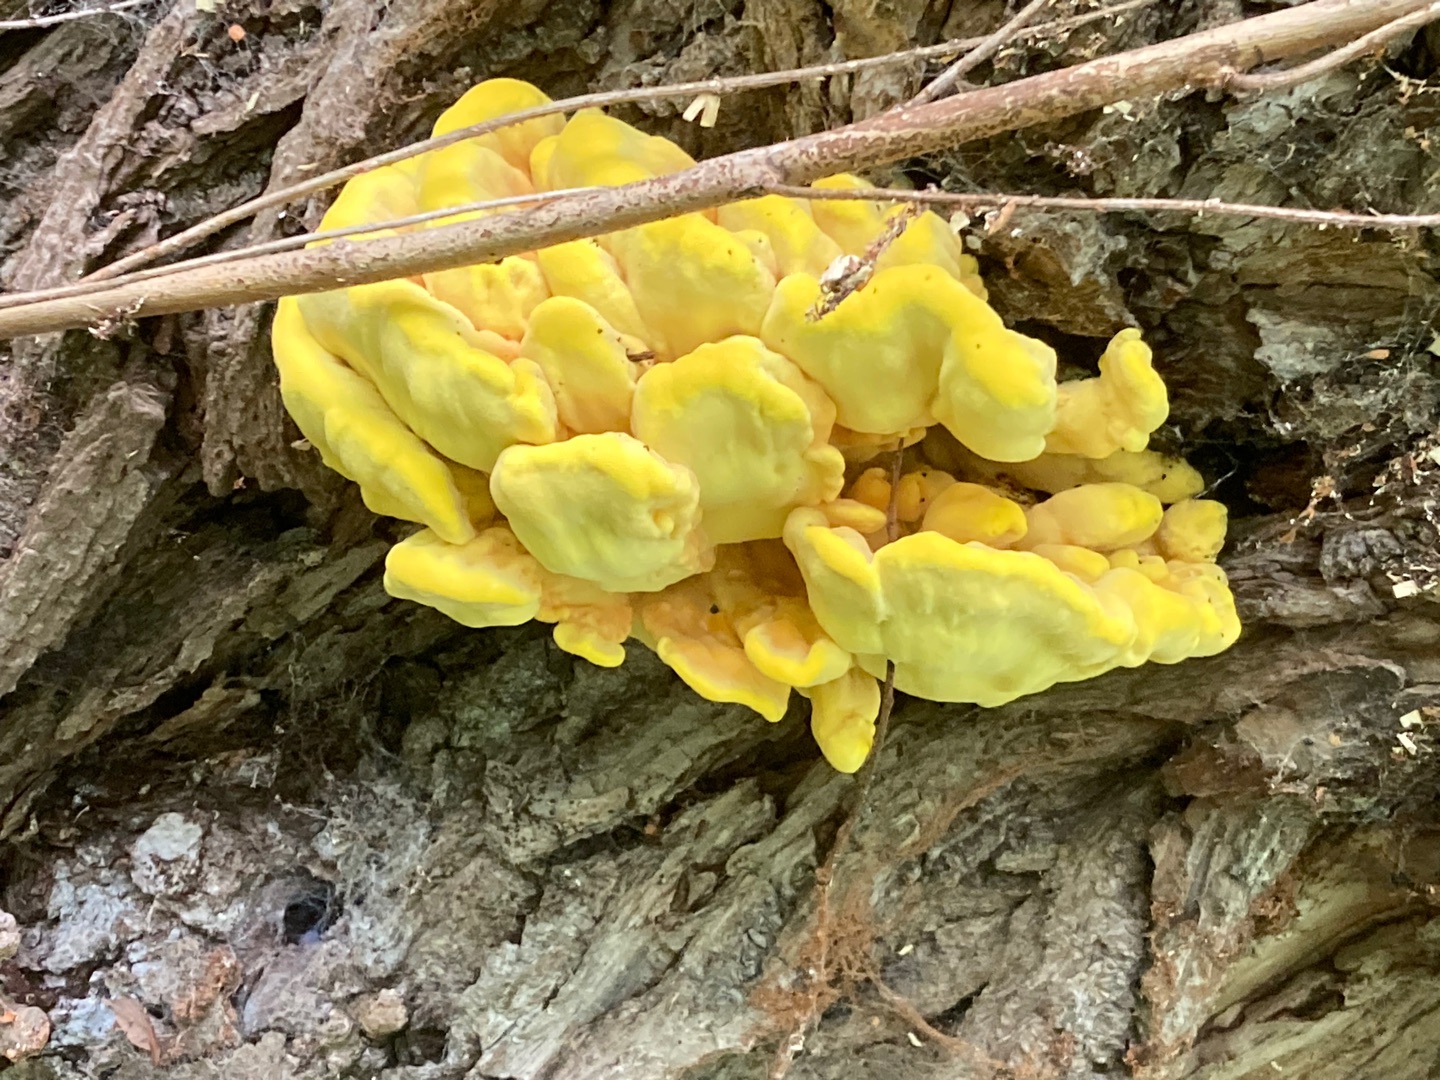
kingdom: Fungi
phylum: Basidiomycota
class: Agaricomycetes
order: Polyporales
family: Laetiporaceae
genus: Laetiporus
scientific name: Laetiporus sulphureus
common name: Svovlporesvamp
